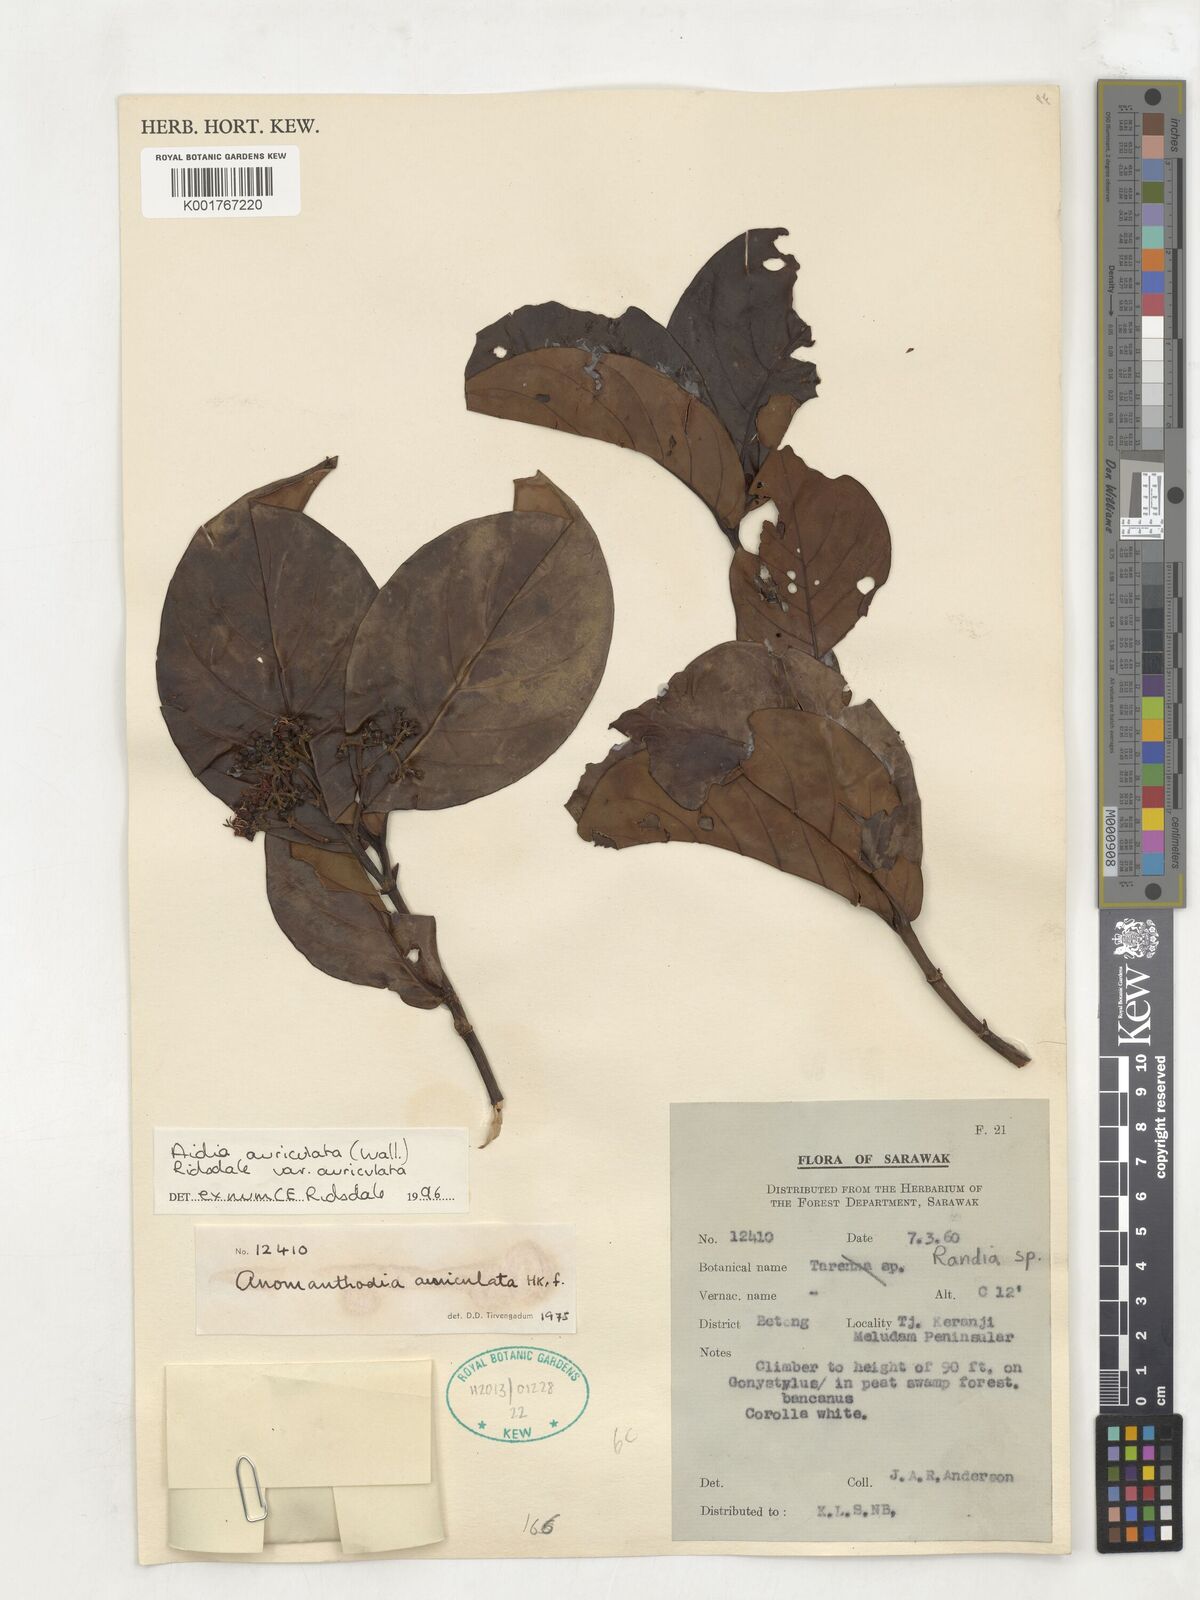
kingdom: Plantae
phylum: Tracheophyta
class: Magnoliopsida
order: Gentianales
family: Rubiaceae
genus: Aidia
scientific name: Aidia auriculata
